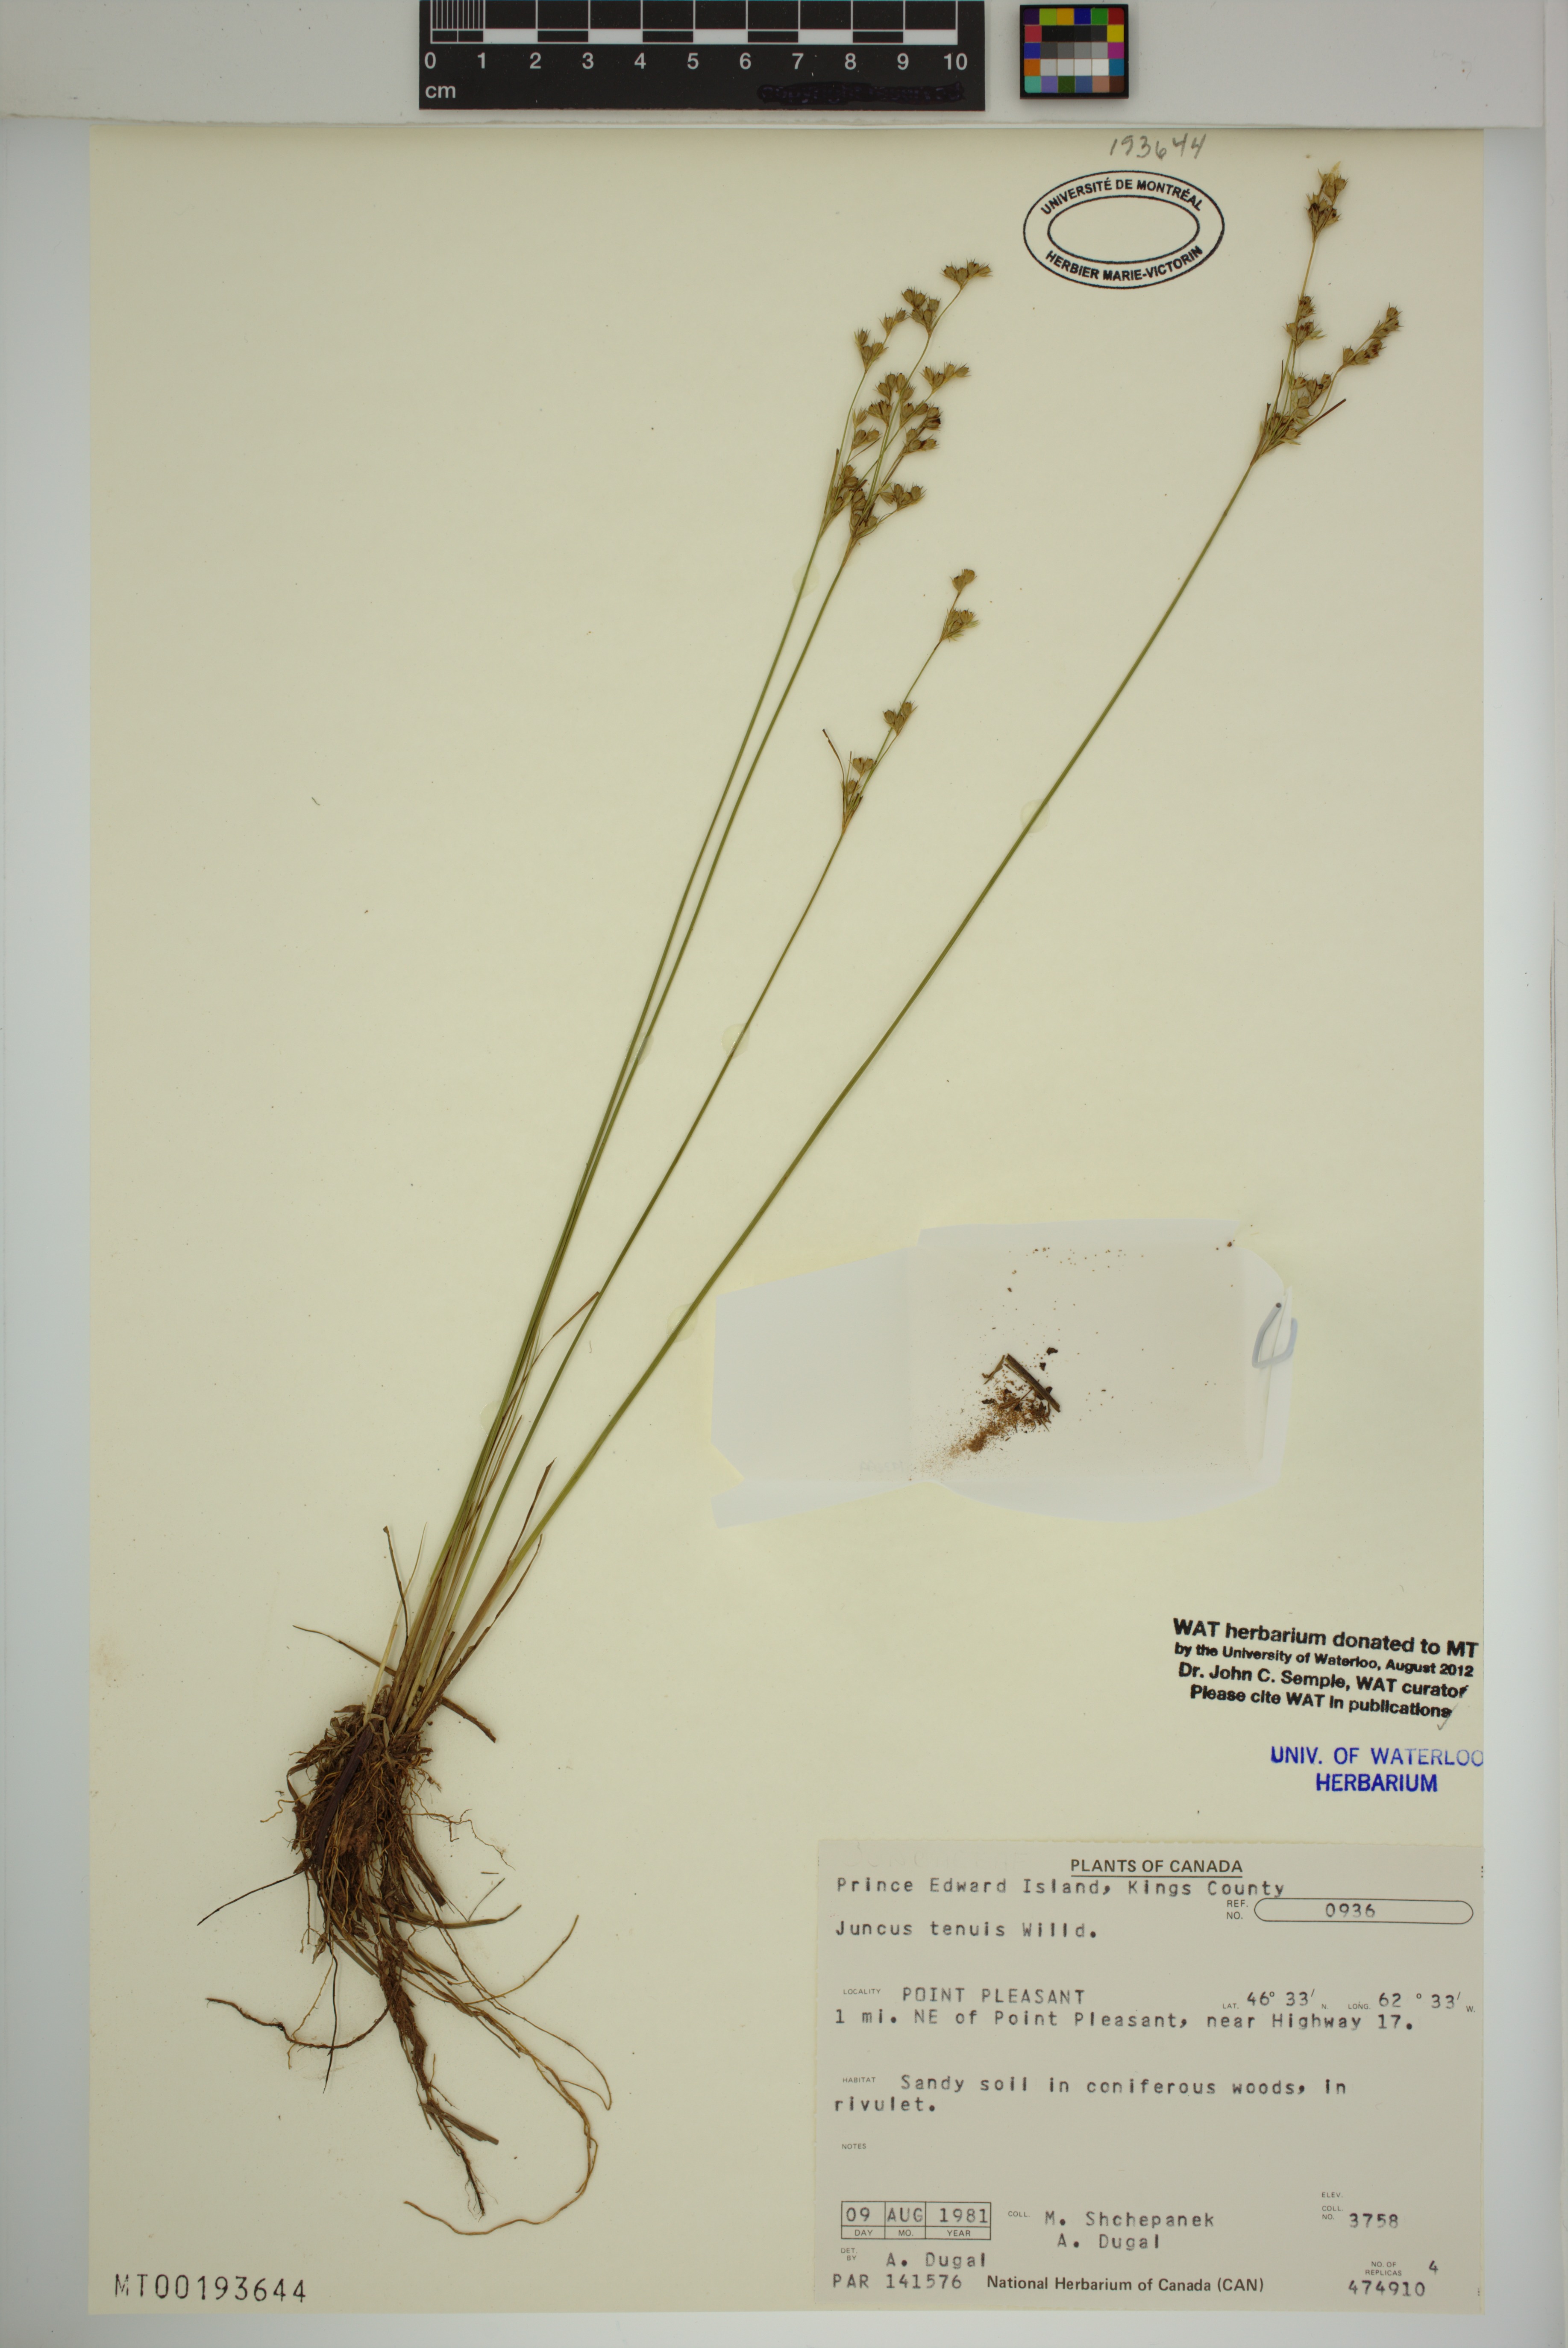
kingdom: Plantae
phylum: Tracheophyta
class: Liliopsida
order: Poales
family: Juncaceae
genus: Juncus
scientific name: Juncus tenuis
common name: Slender rush
